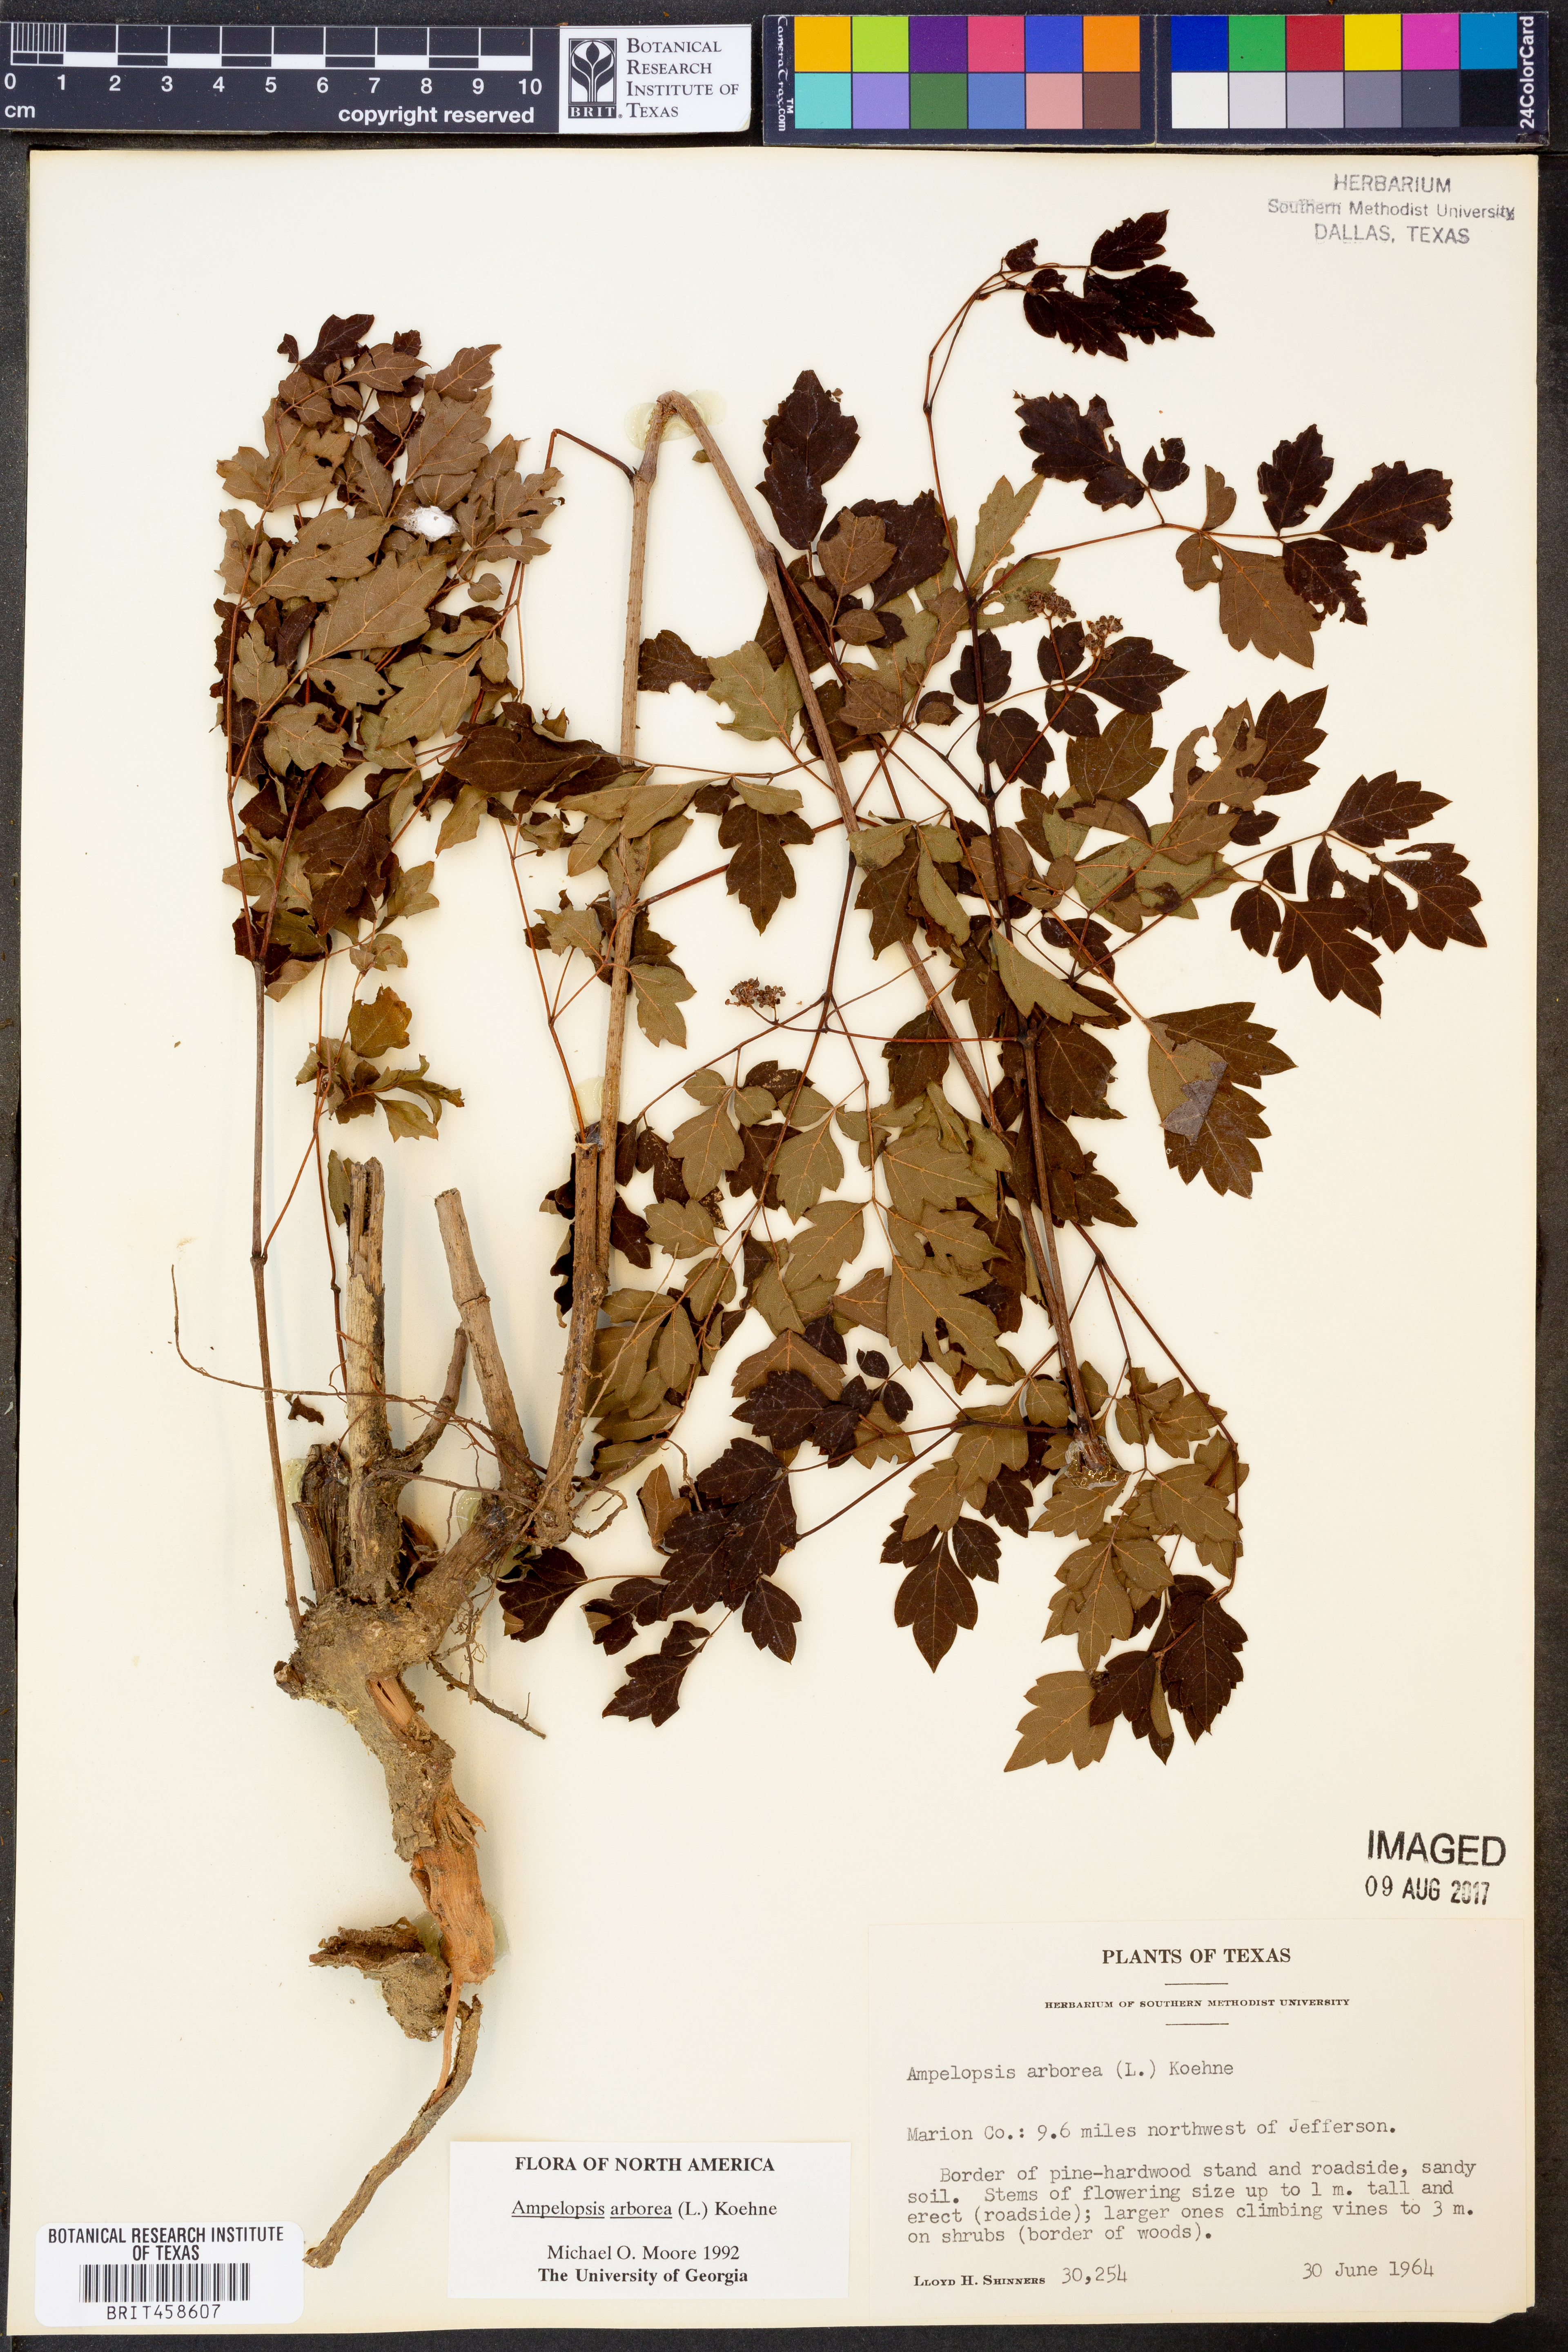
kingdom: Plantae
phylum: Tracheophyta
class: Magnoliopsida
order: Vitales
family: Vitaceae
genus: Nekemias
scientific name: Nekemias arborea
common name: Peppervine
